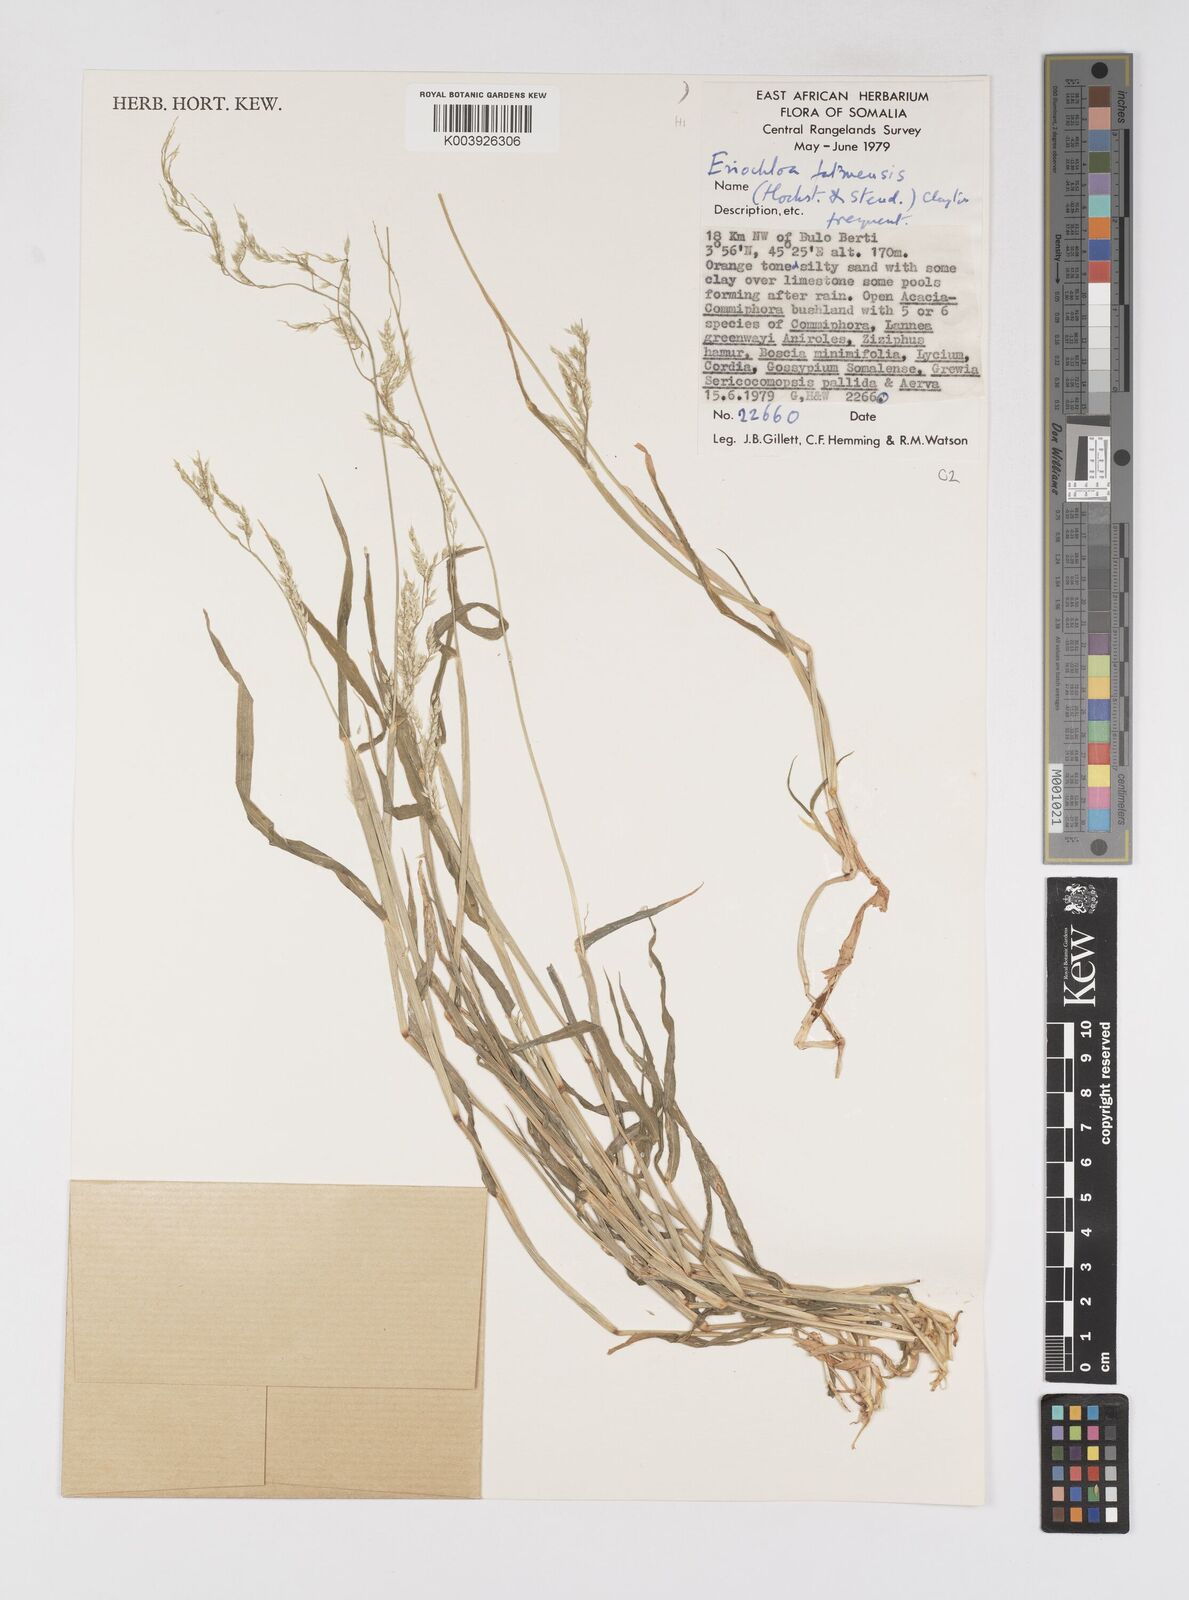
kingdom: Plantae
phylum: Tracheophyta
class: Liliopsida
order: Poales
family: Poaceae
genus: Eriochloa
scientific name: Eriochloa barbatus
